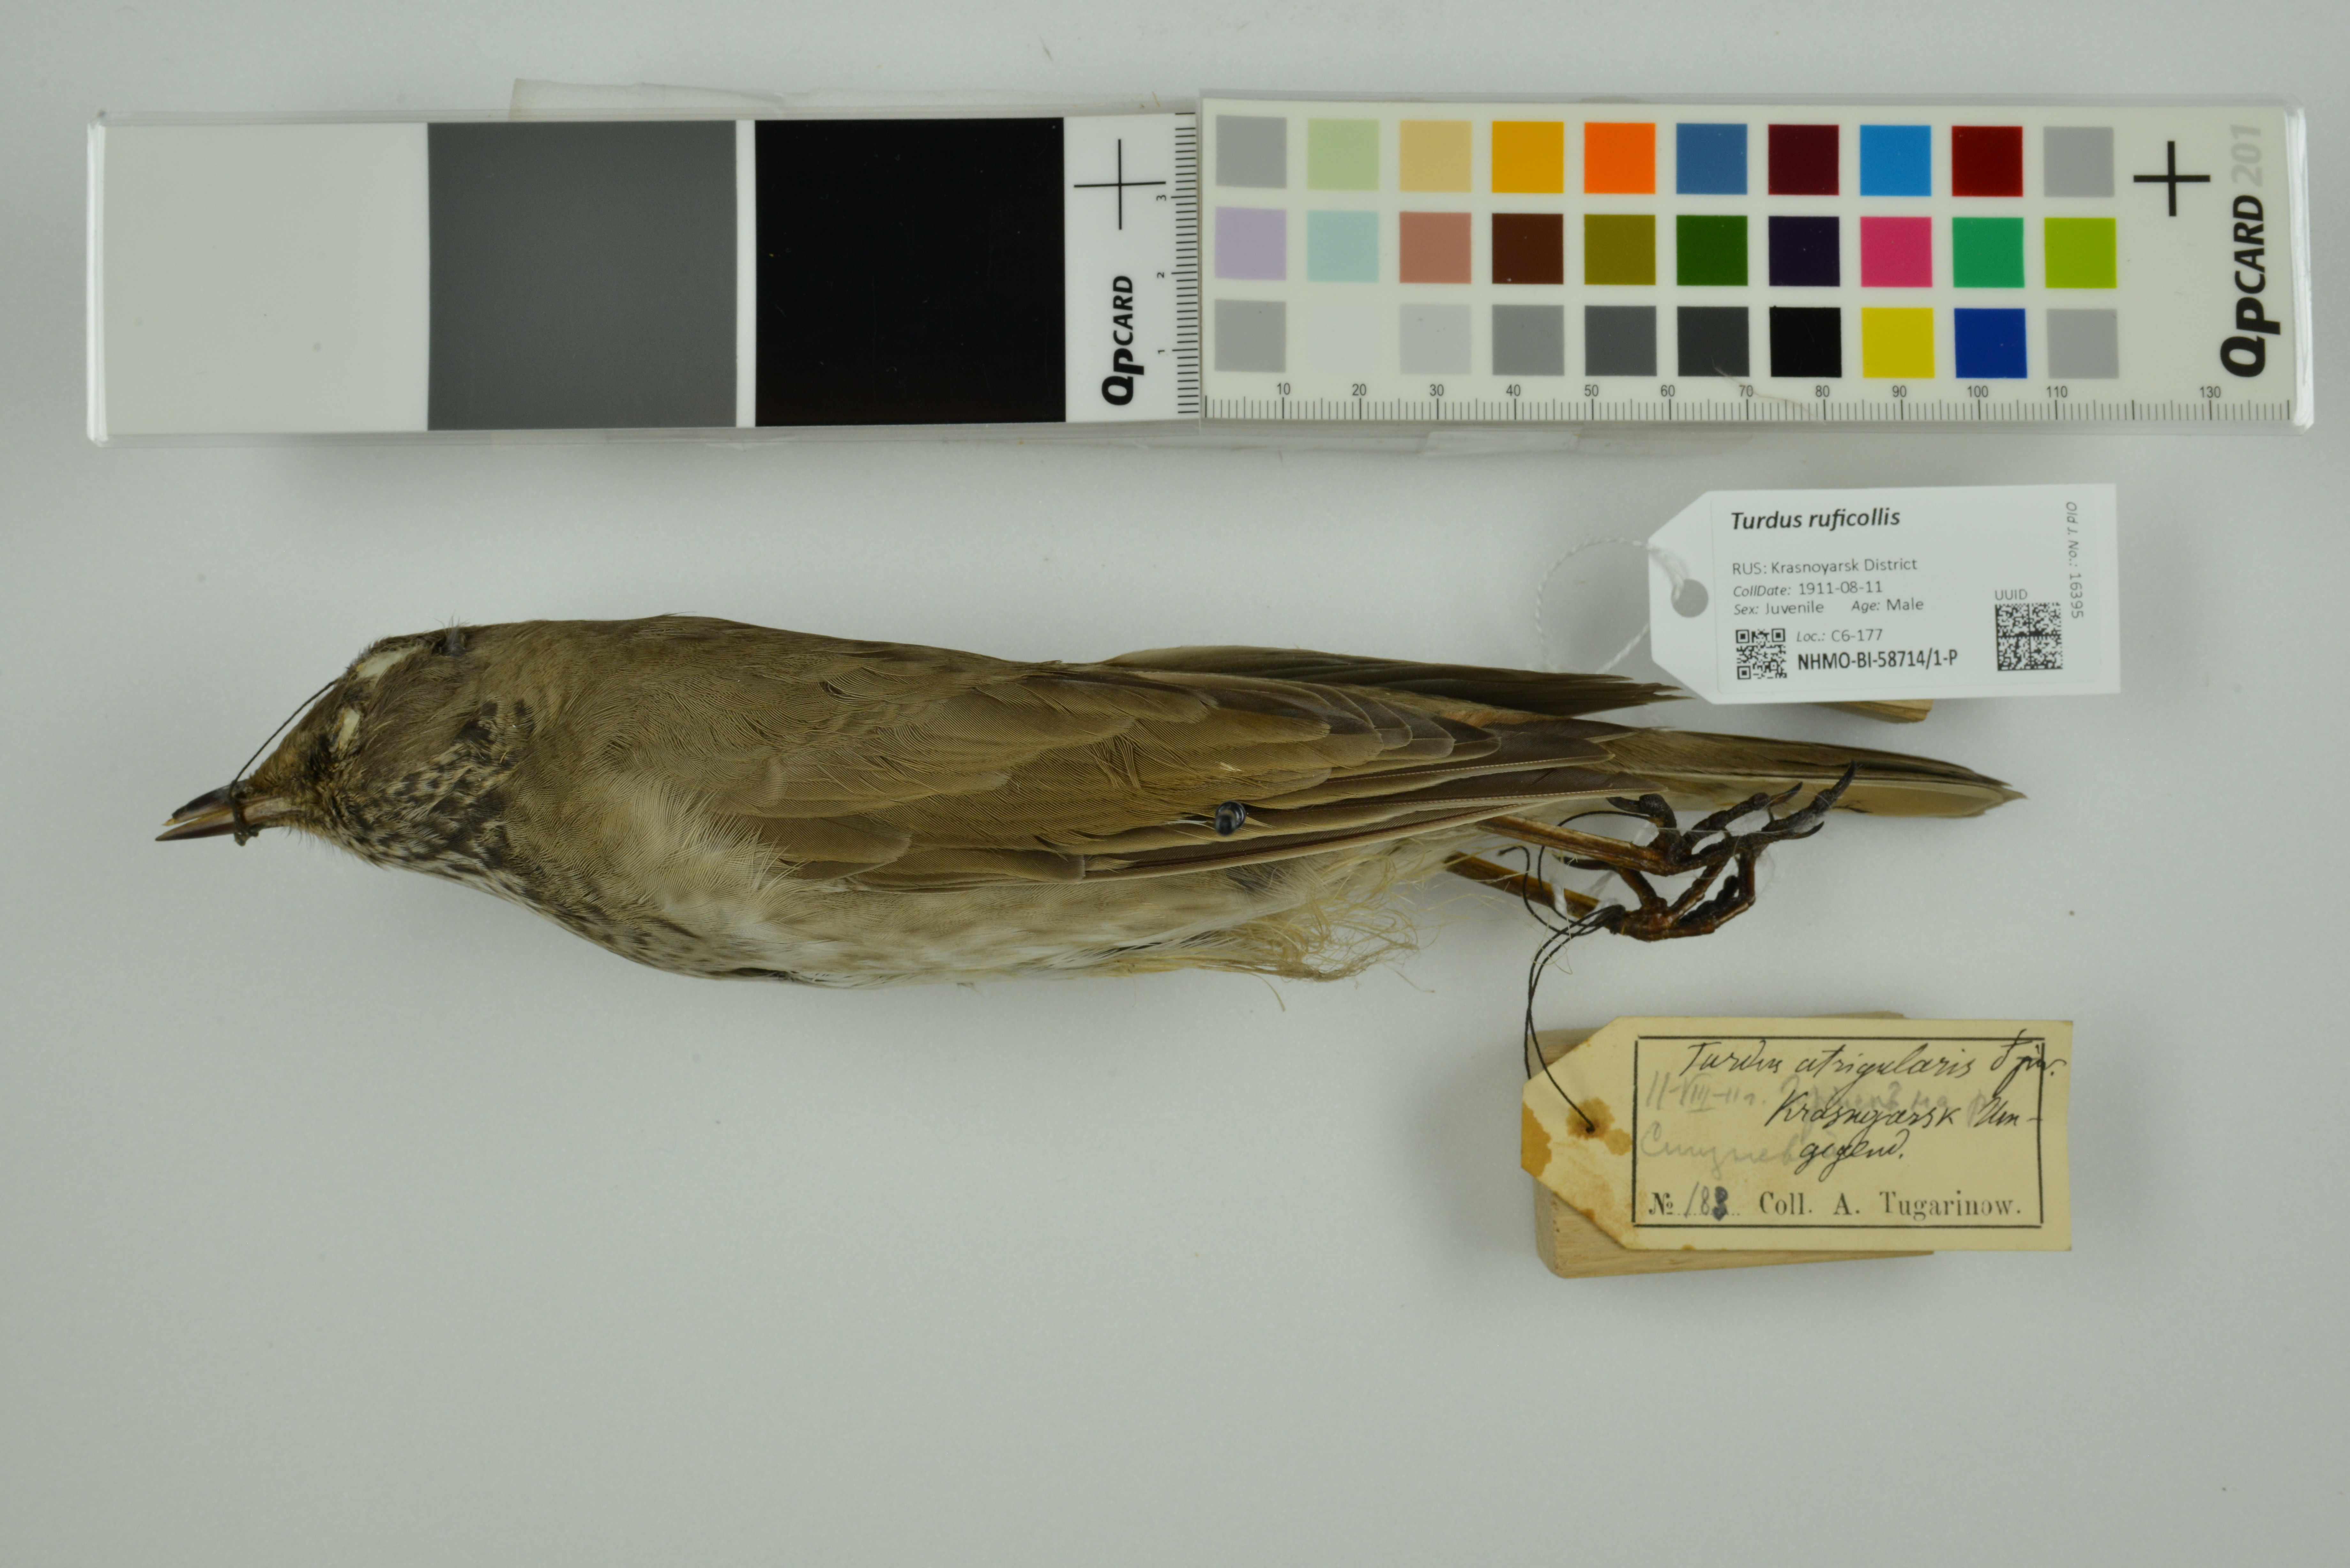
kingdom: Animalia
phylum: Chordata
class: Aves
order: Passeriformes
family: Turdidae
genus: Turdus
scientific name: Turdus ruficollis
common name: Red-throated thrush
